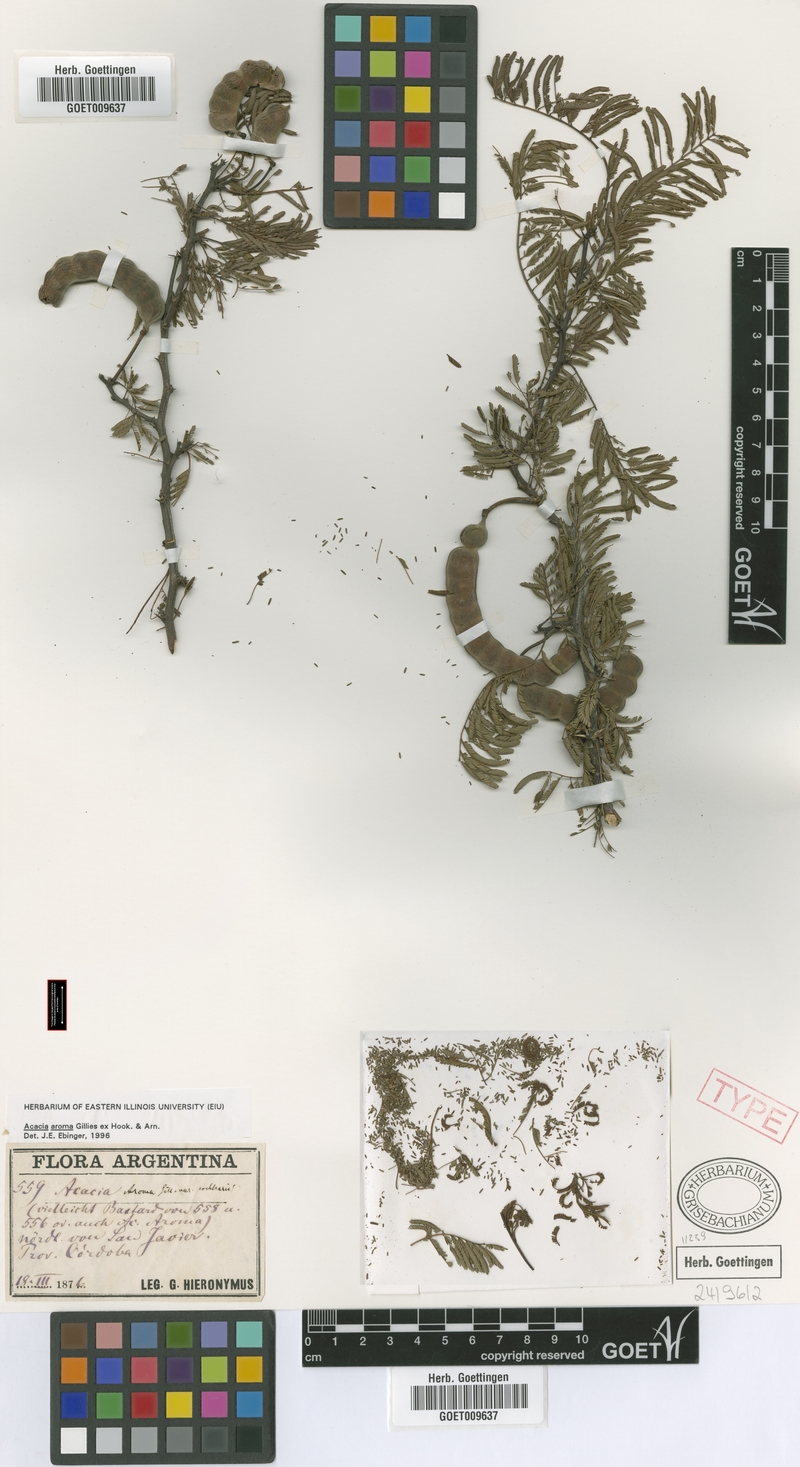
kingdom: Plantae
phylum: Tracheophyta
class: Magnoliopsida
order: Fabales
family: Fabaceae
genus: Vachellia
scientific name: Vachellia aroma
